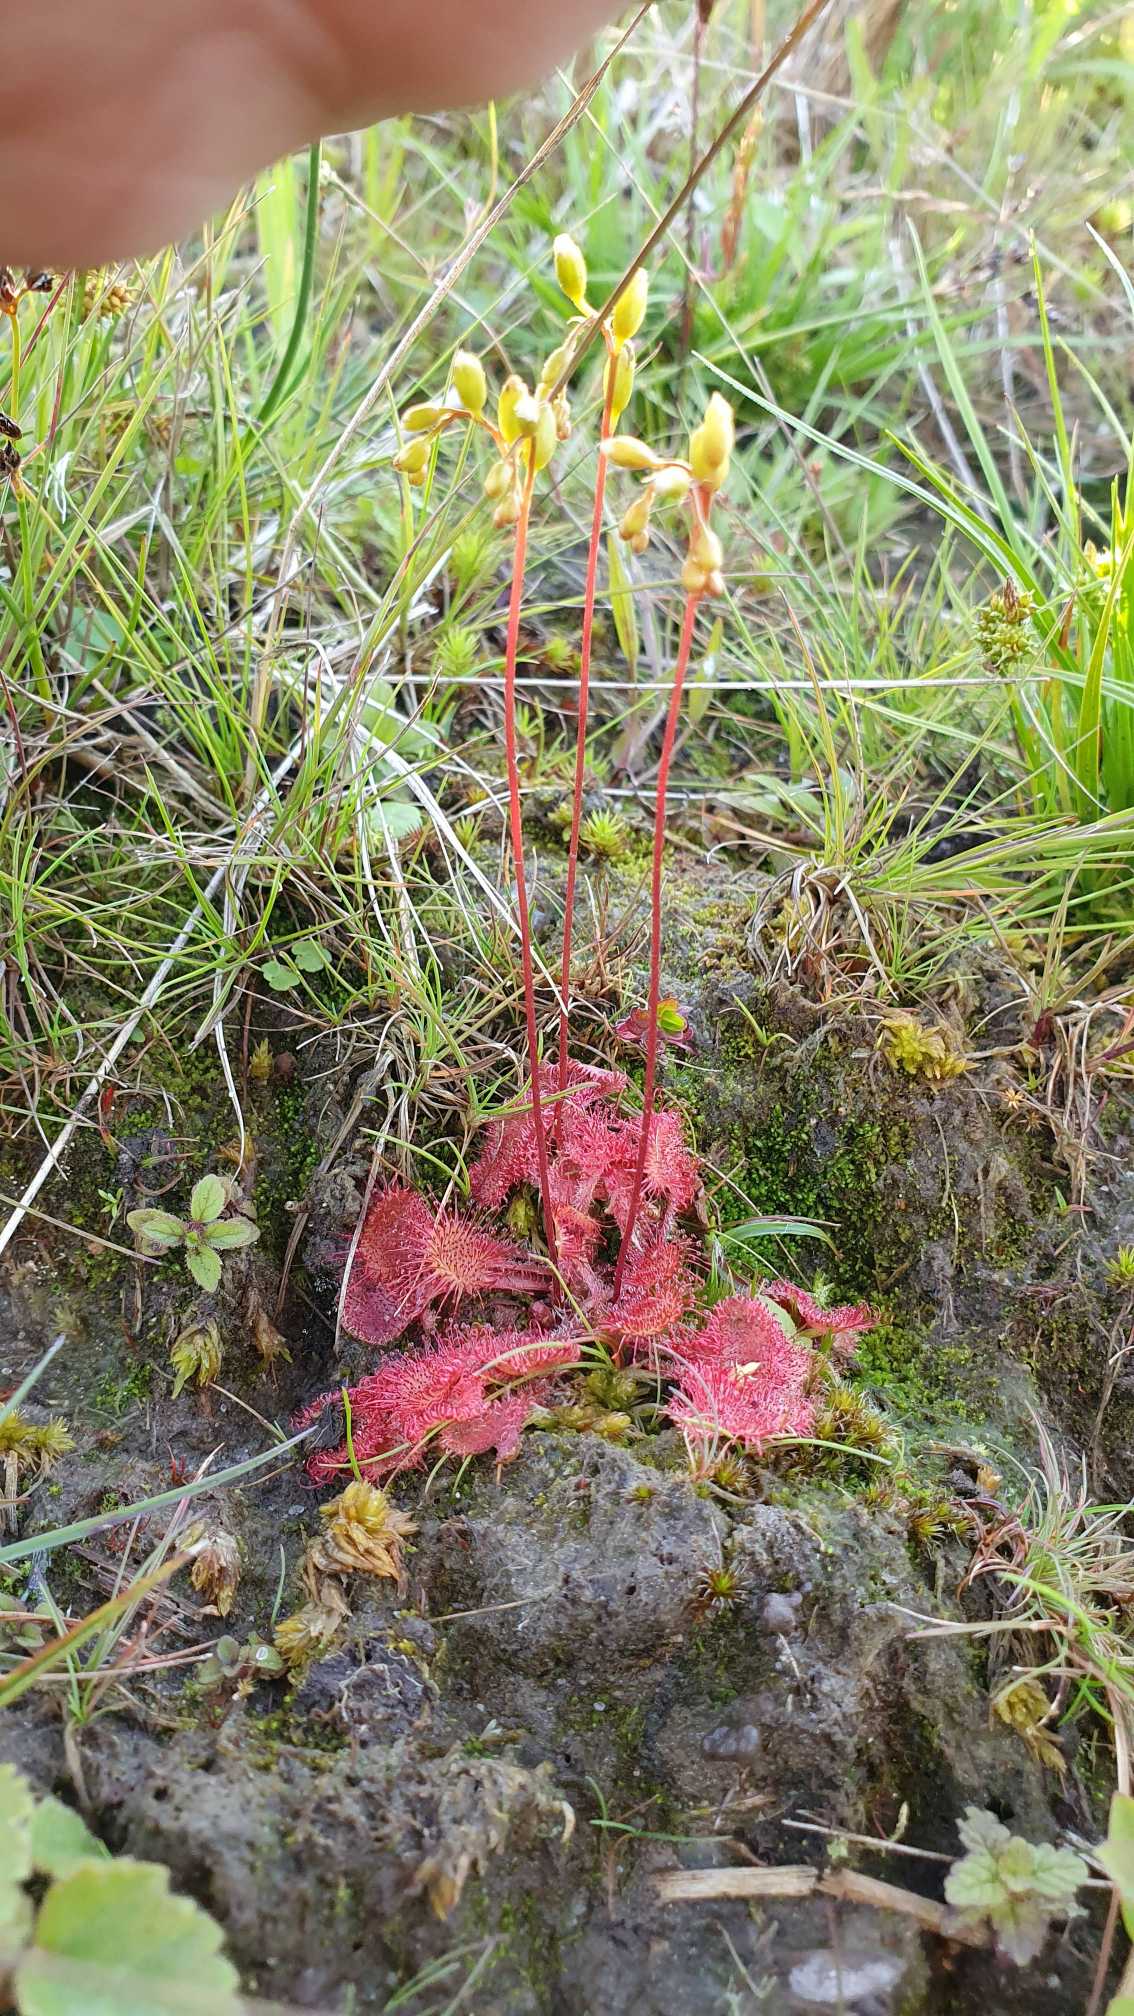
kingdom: Plantae
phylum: Tracheophyta
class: Magnoliopsida
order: Caryophyllales
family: Droseraceae
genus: Drosera
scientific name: Drosera rotundifolia
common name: Rundbladet soldug
